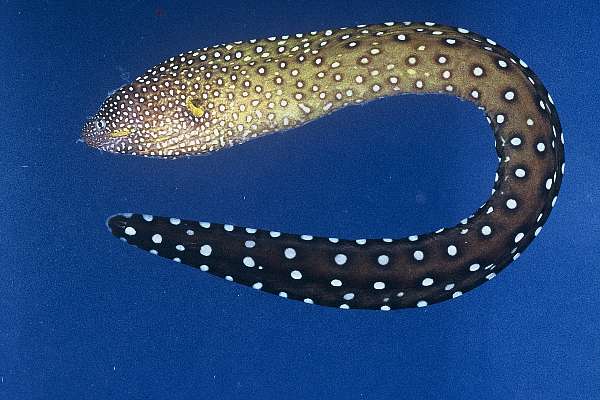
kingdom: Animalia
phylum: Chordata
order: Anguilliformes
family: Muraenidae
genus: Gymnothorax
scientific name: Gymnothorax nudivomer
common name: Yellowmouth moray
